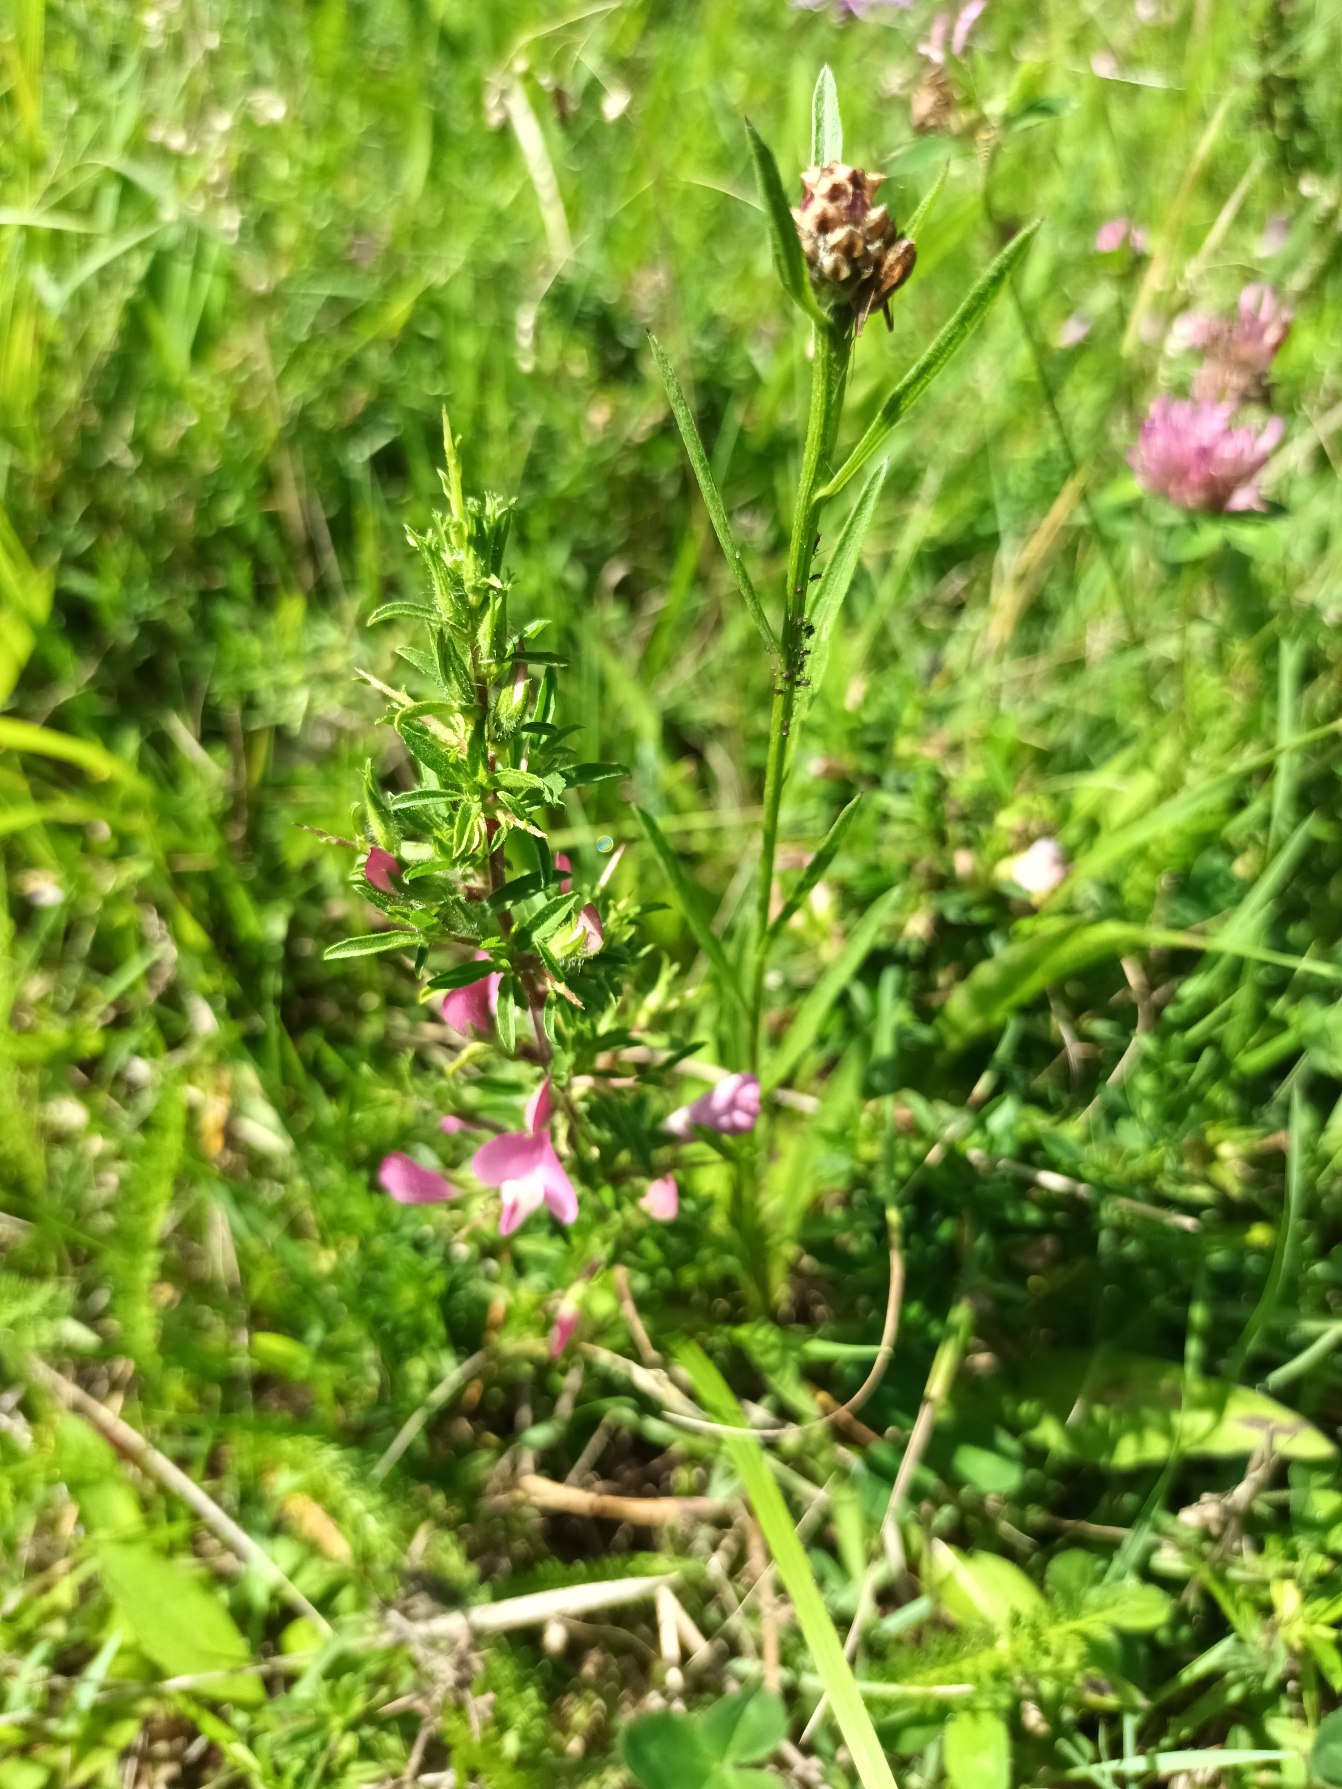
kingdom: Plantae
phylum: Tracheophyta
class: Magnoliopsida
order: Fabales
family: Fabaceae
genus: Ononis
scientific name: Ononis spinosa
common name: Strand-krageklo
